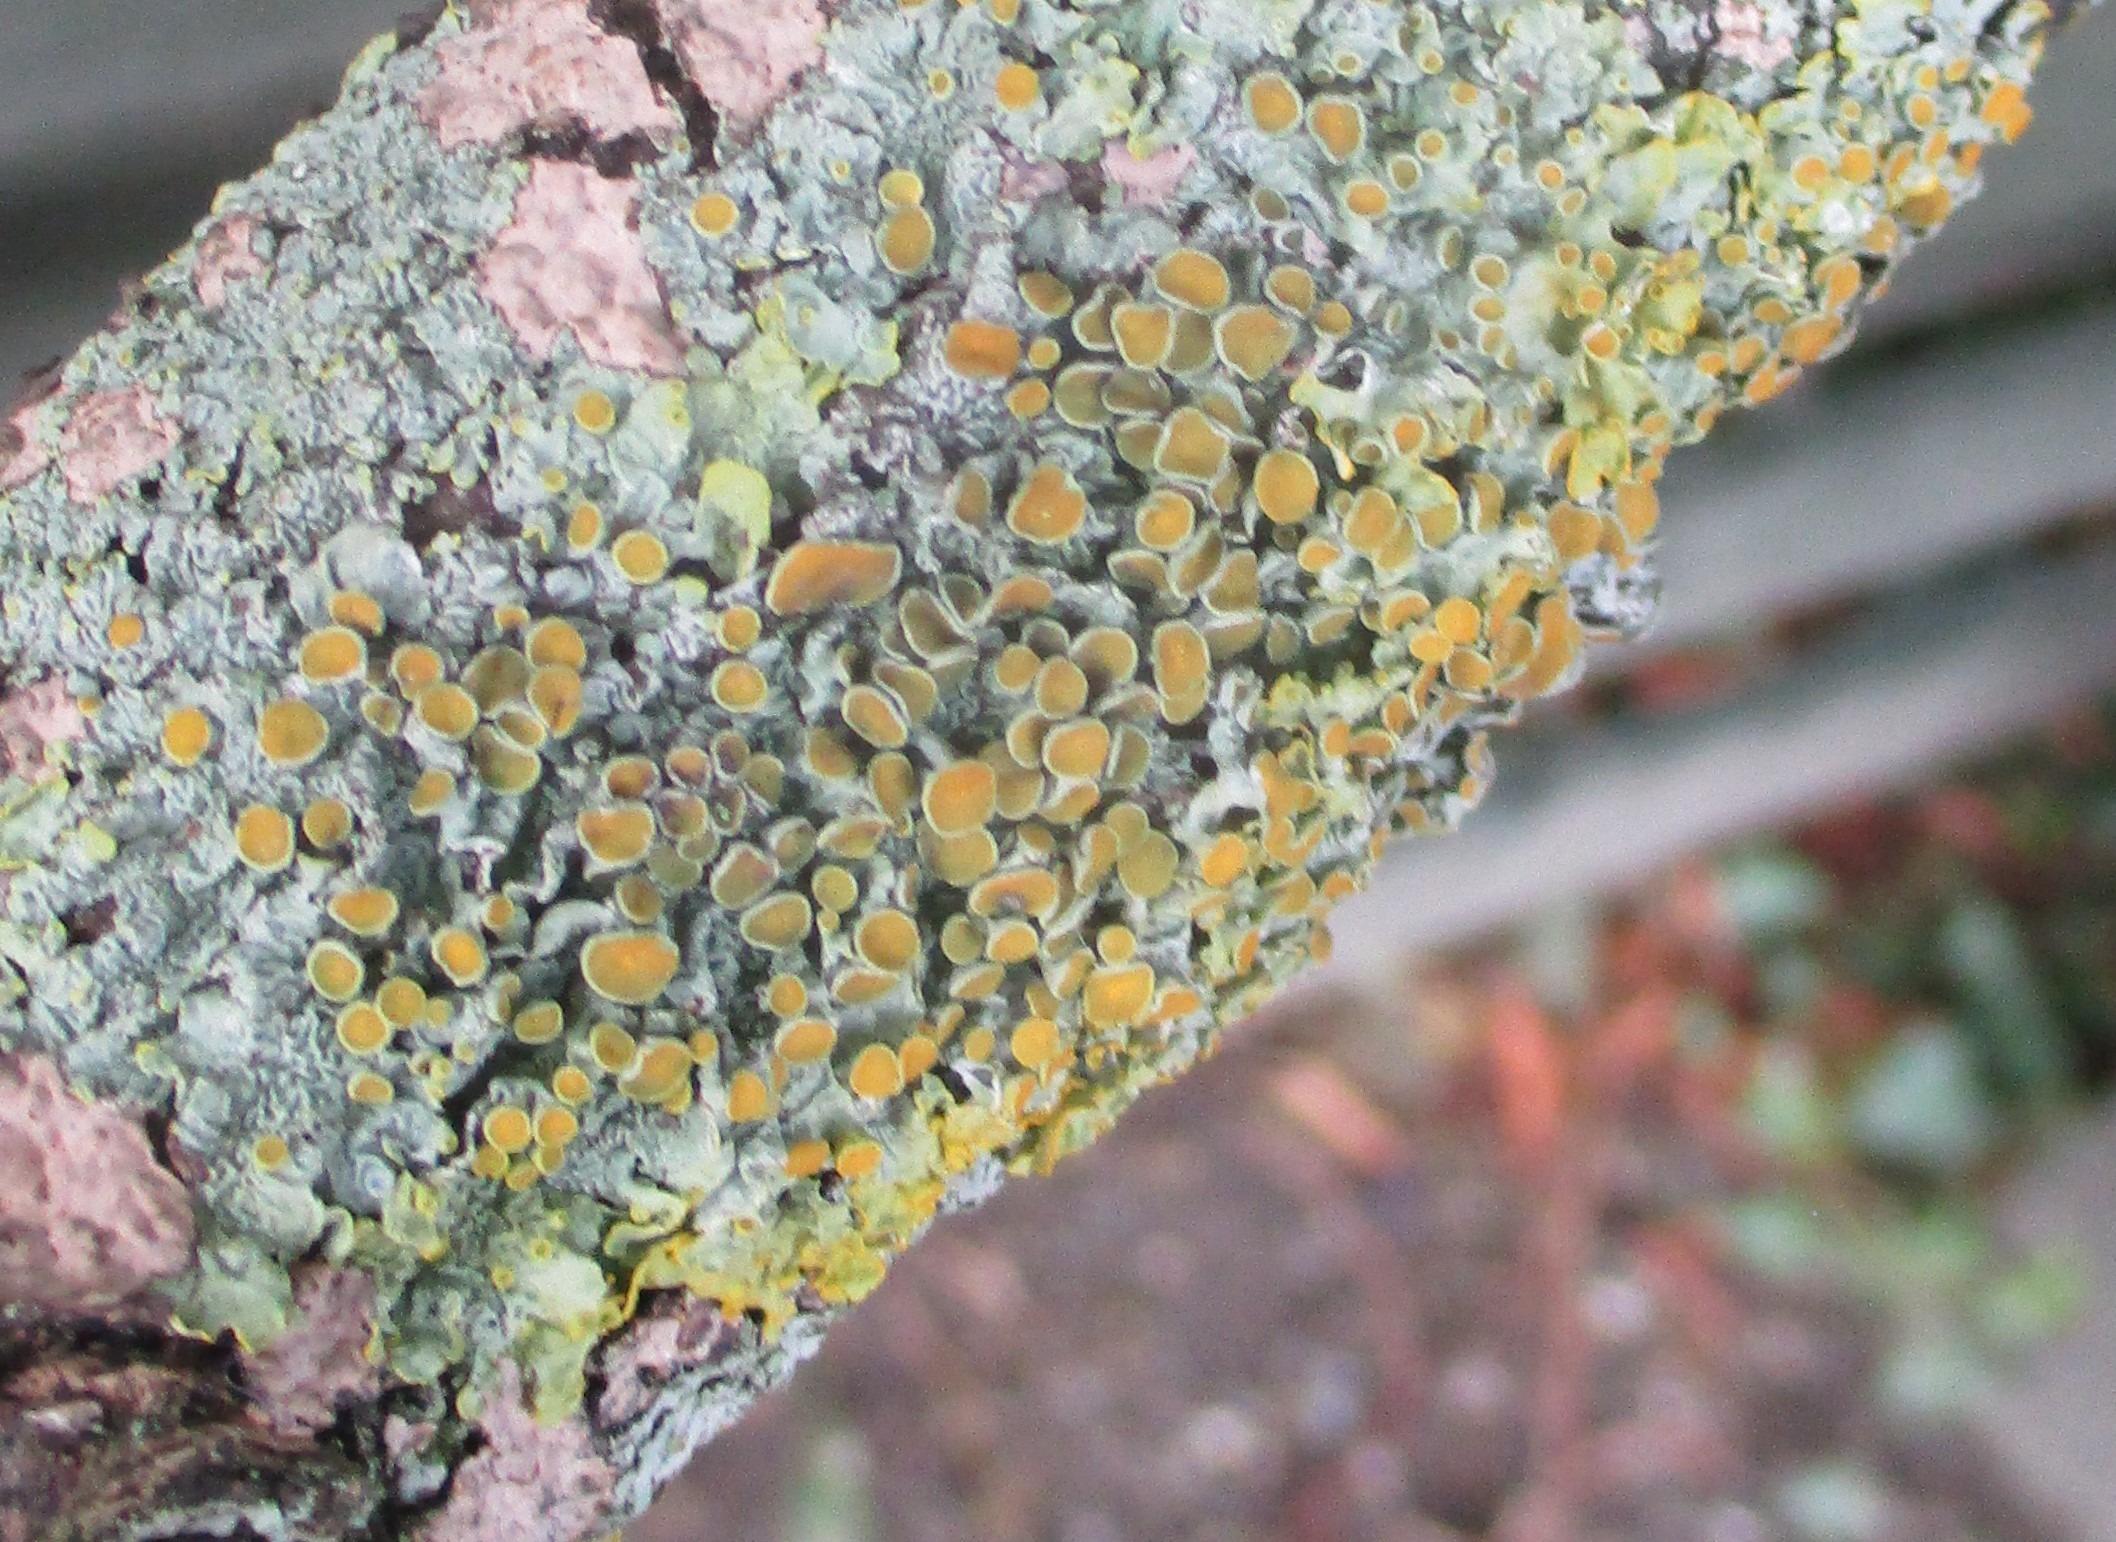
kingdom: Fungi
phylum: Ascomycota
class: Lecanoromycetes
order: Teloschistales
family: Teloschistaceae
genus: Xanthoria
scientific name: Xanthoria parietina
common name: Almindelig væggelav
